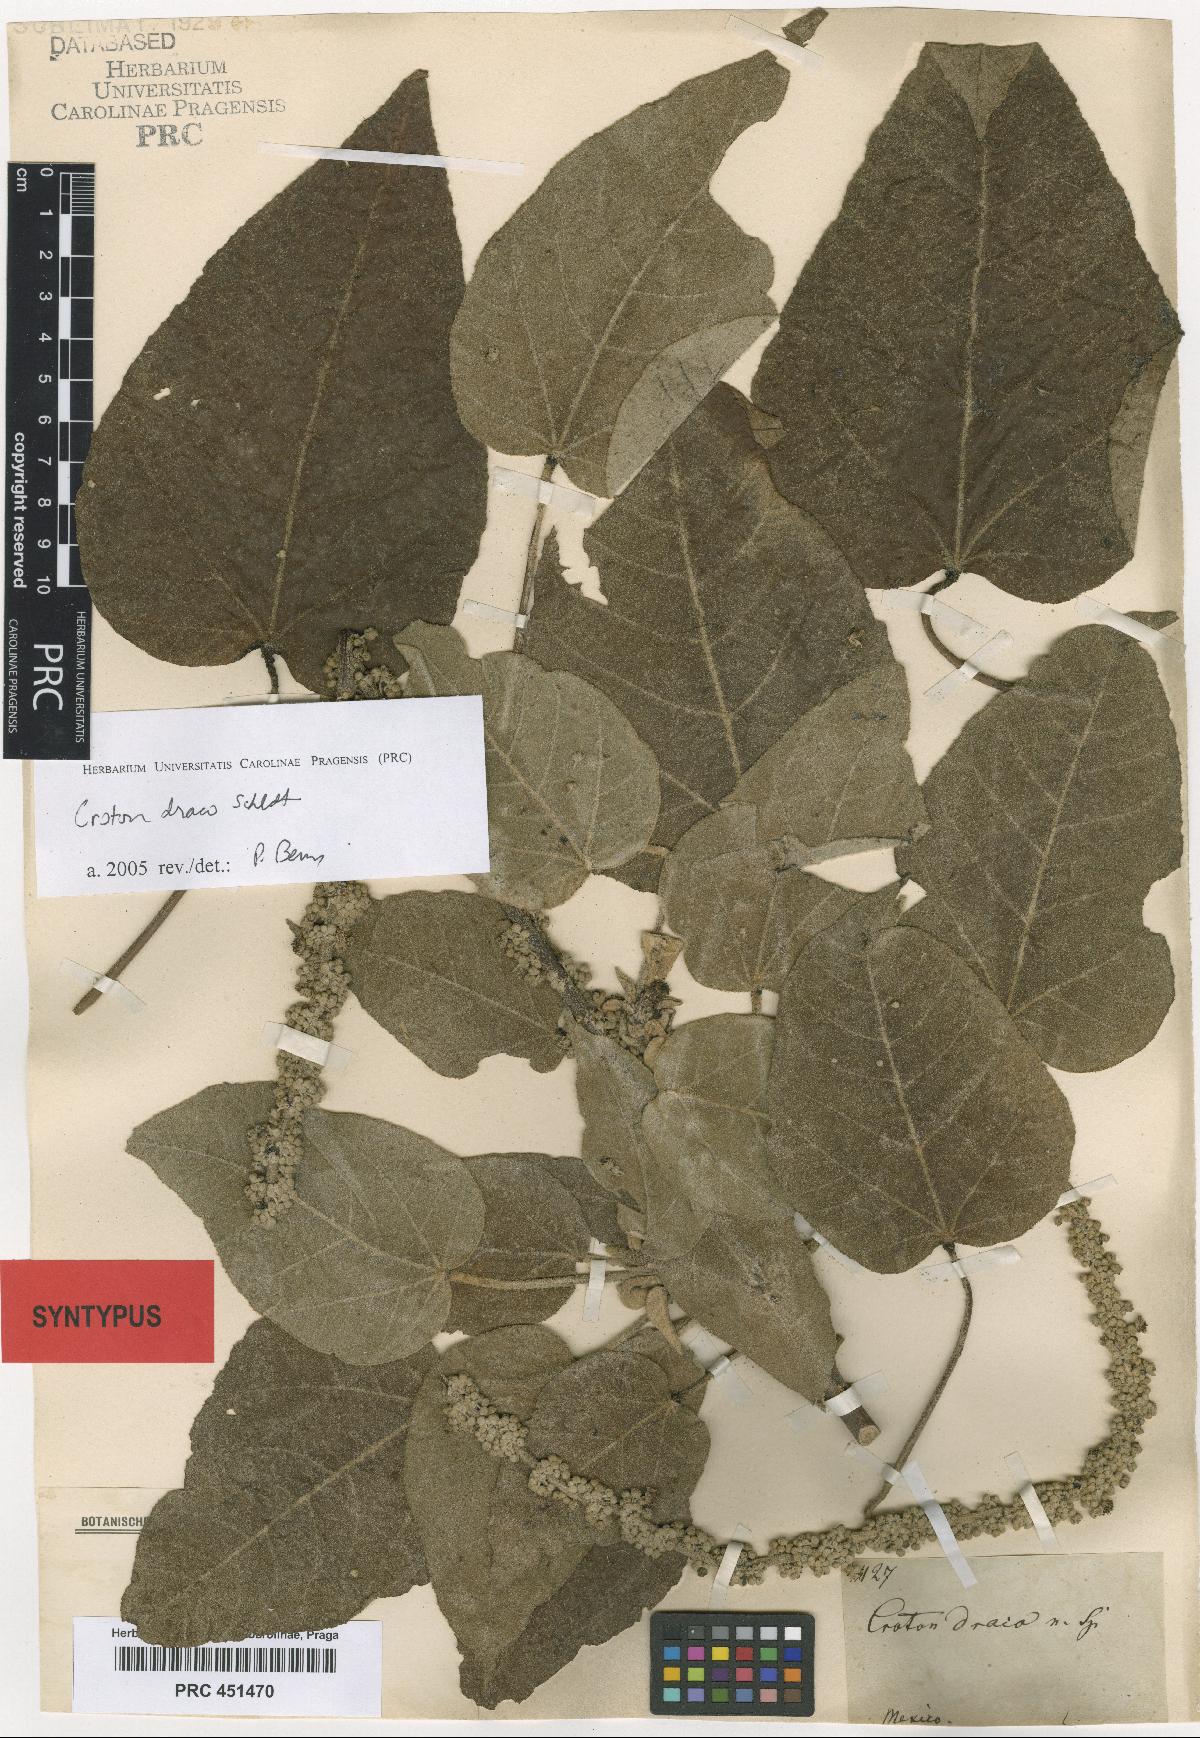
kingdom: Plantae
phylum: Tracheophyta
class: Magnoliopsida
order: Malpighiales
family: Euphorbiaceae
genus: Croton
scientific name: Croton draco
